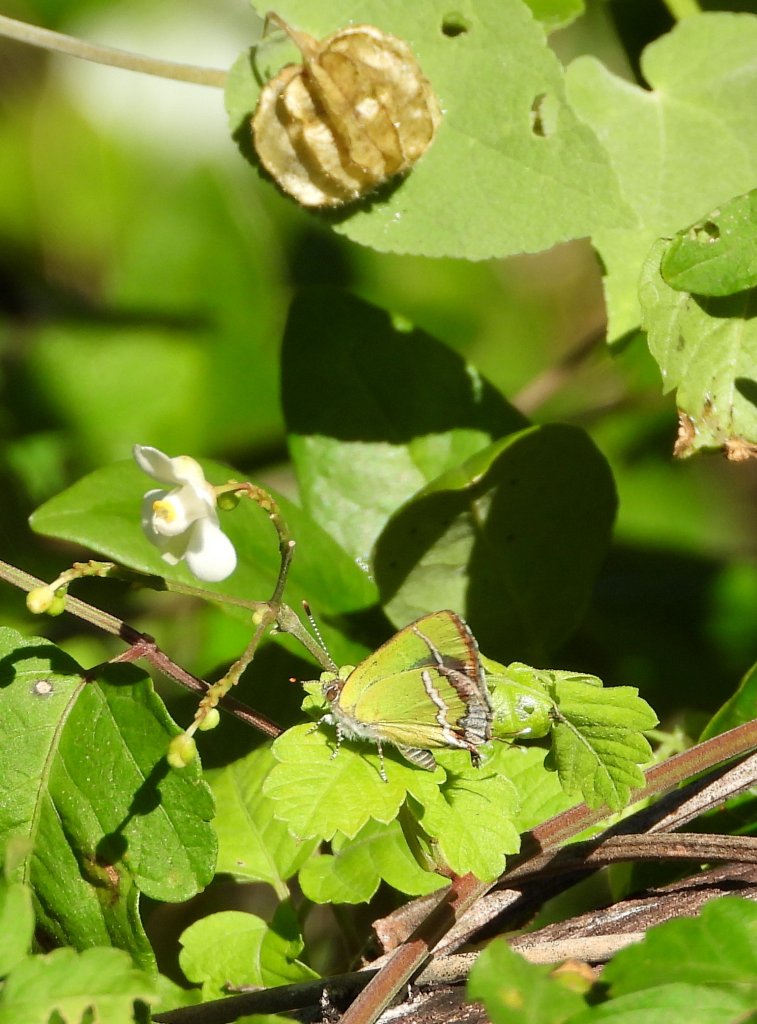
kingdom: Animalia
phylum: Arthropoda
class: Insecta
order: Lepidoptera
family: Lycaenidae
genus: Chlorostrymon
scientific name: Chlorostrymon simaethis
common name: Silver-banded Hairstreak
